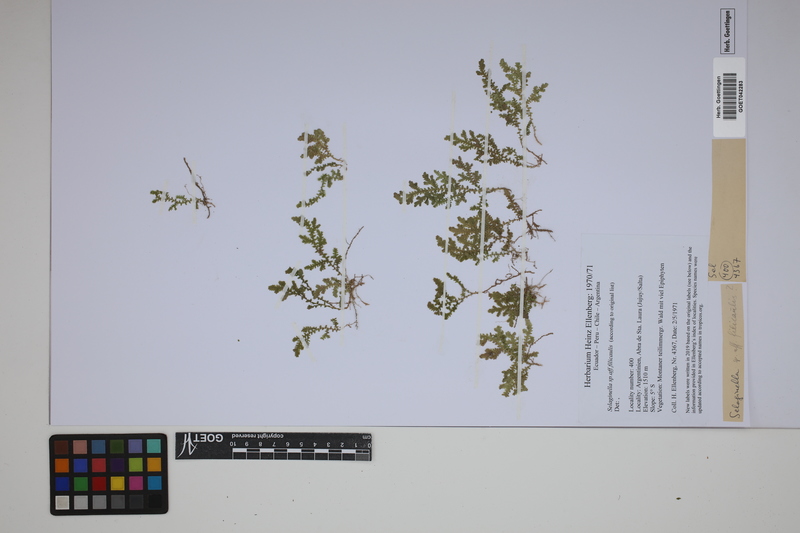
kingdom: Plantae
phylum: Tracheophyta
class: Lycopodiopsida
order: Selaginellales
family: Selaginellaceae
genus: Selaginella
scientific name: Selaginella filicaulis
